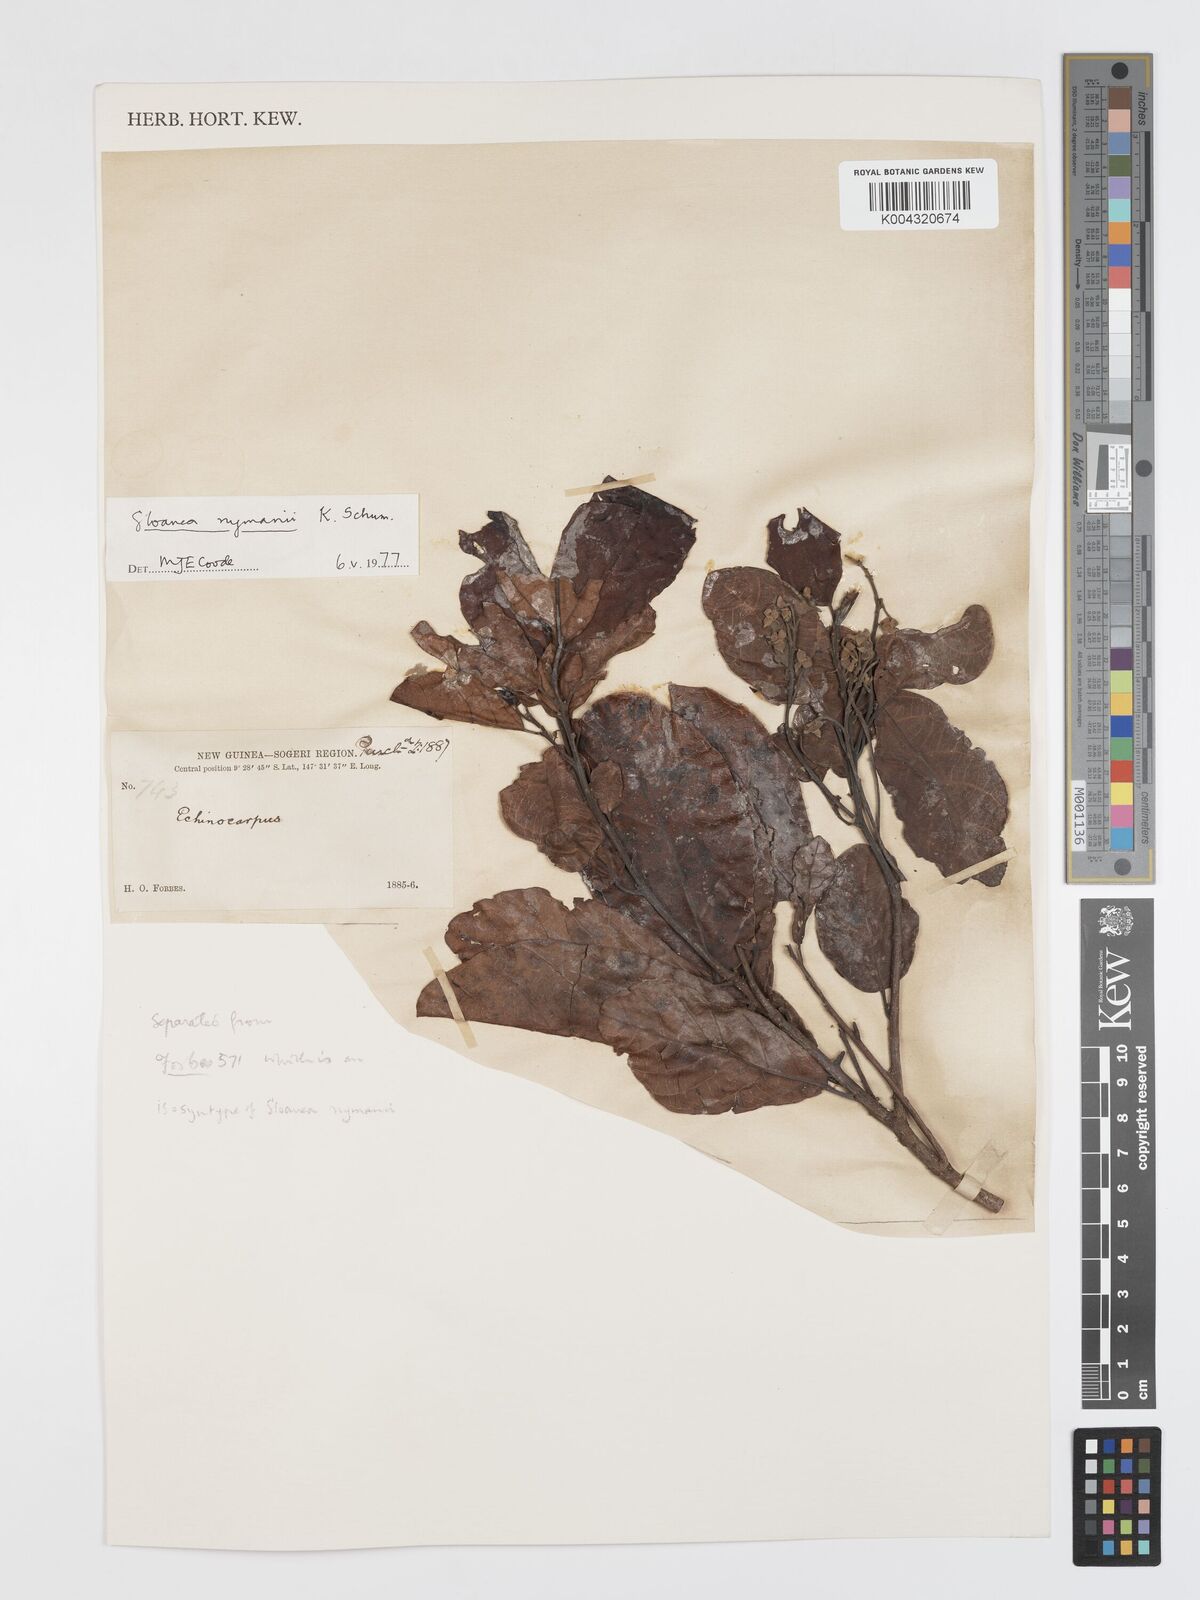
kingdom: Plantae
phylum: Tracheophyta
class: Magnoliopsida
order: Oxalidales
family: Elaeocarpaceae
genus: Sloanea
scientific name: Sloanea nymanii
